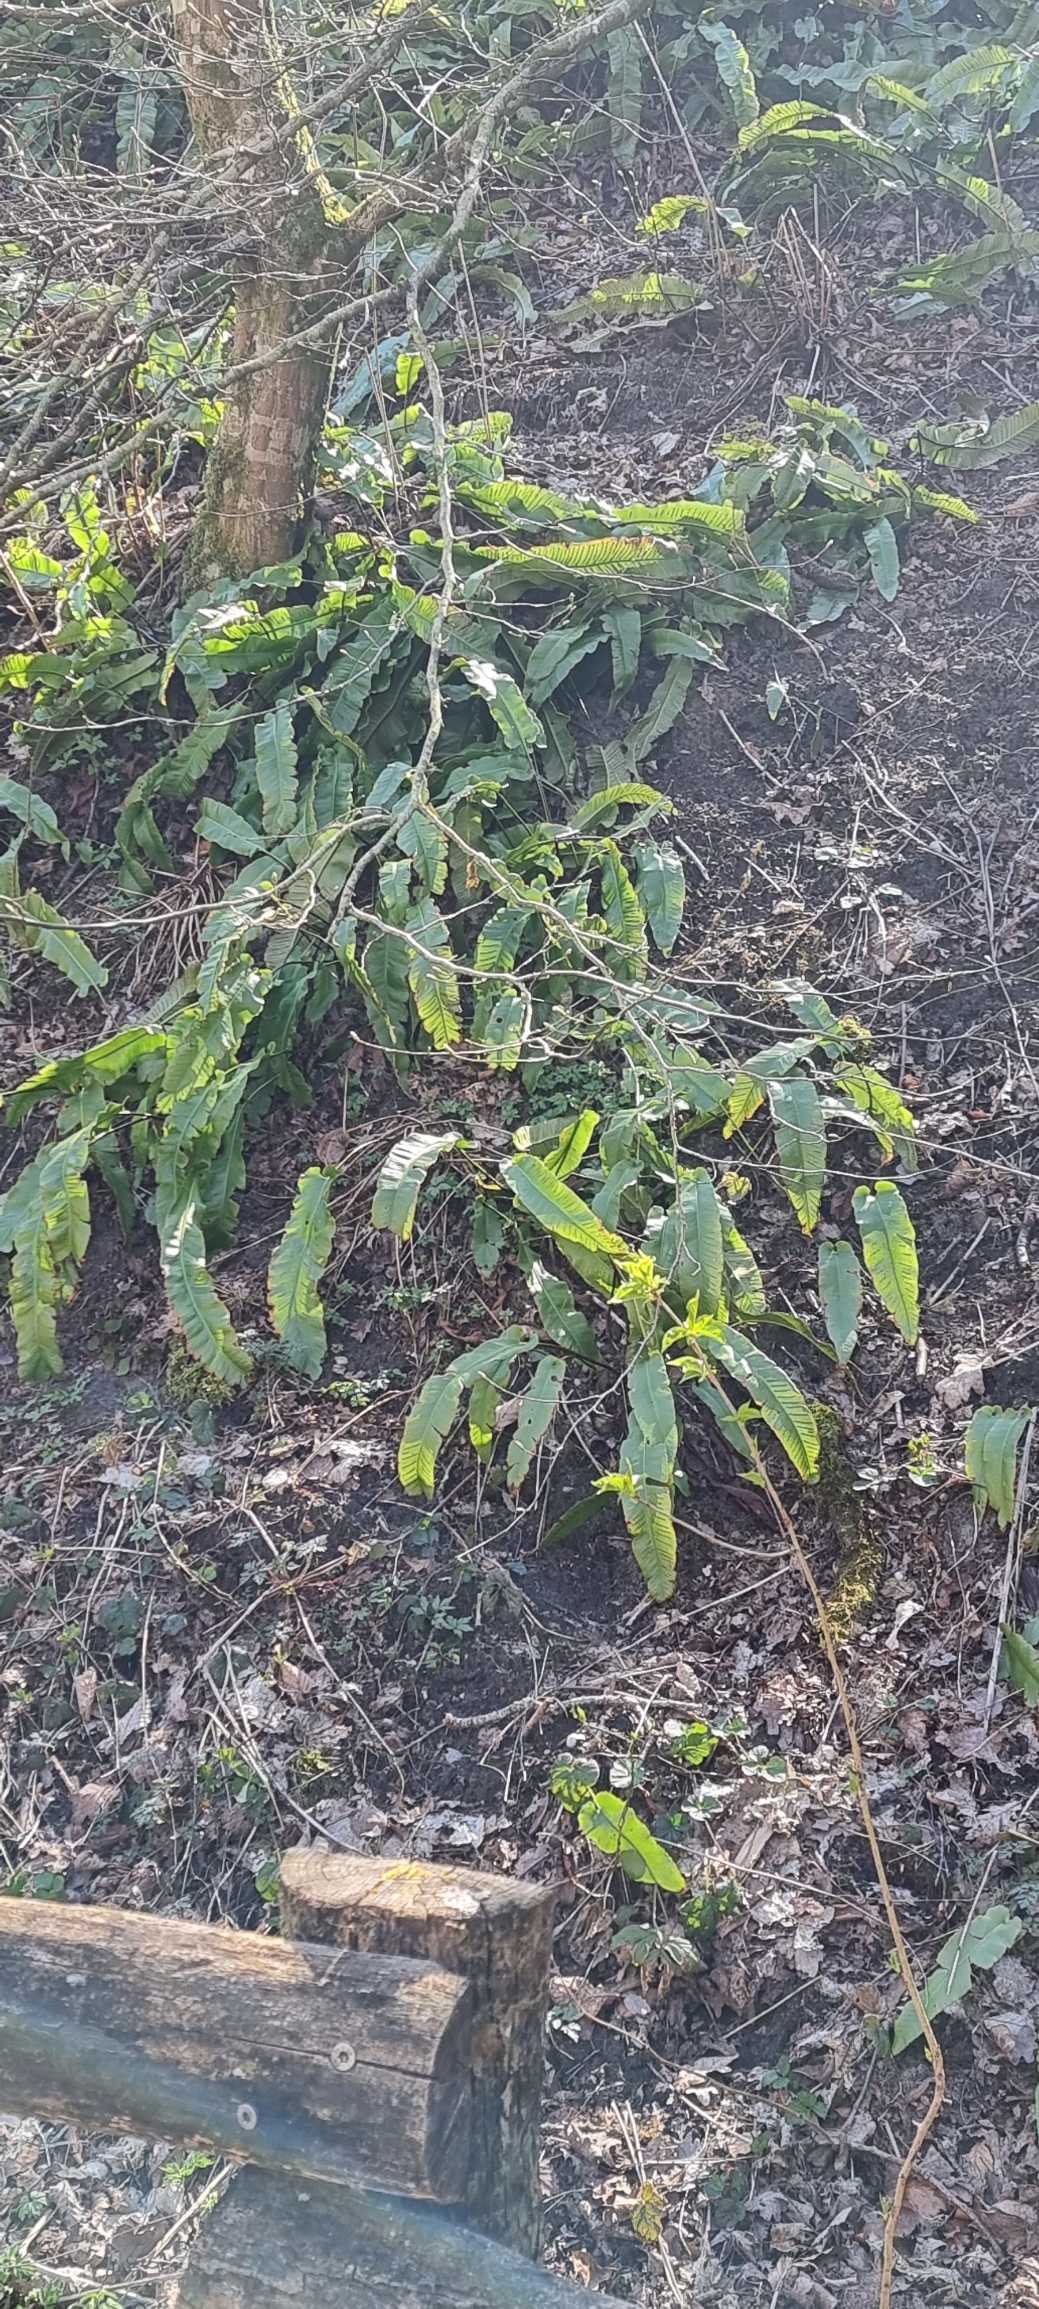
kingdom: Plantae
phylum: Tracheophyta
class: Polypodiopsida
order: Polypodiales
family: Aspleniaceae
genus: Asplenium
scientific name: Asplenium scolopendrium
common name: Hjortetunge
